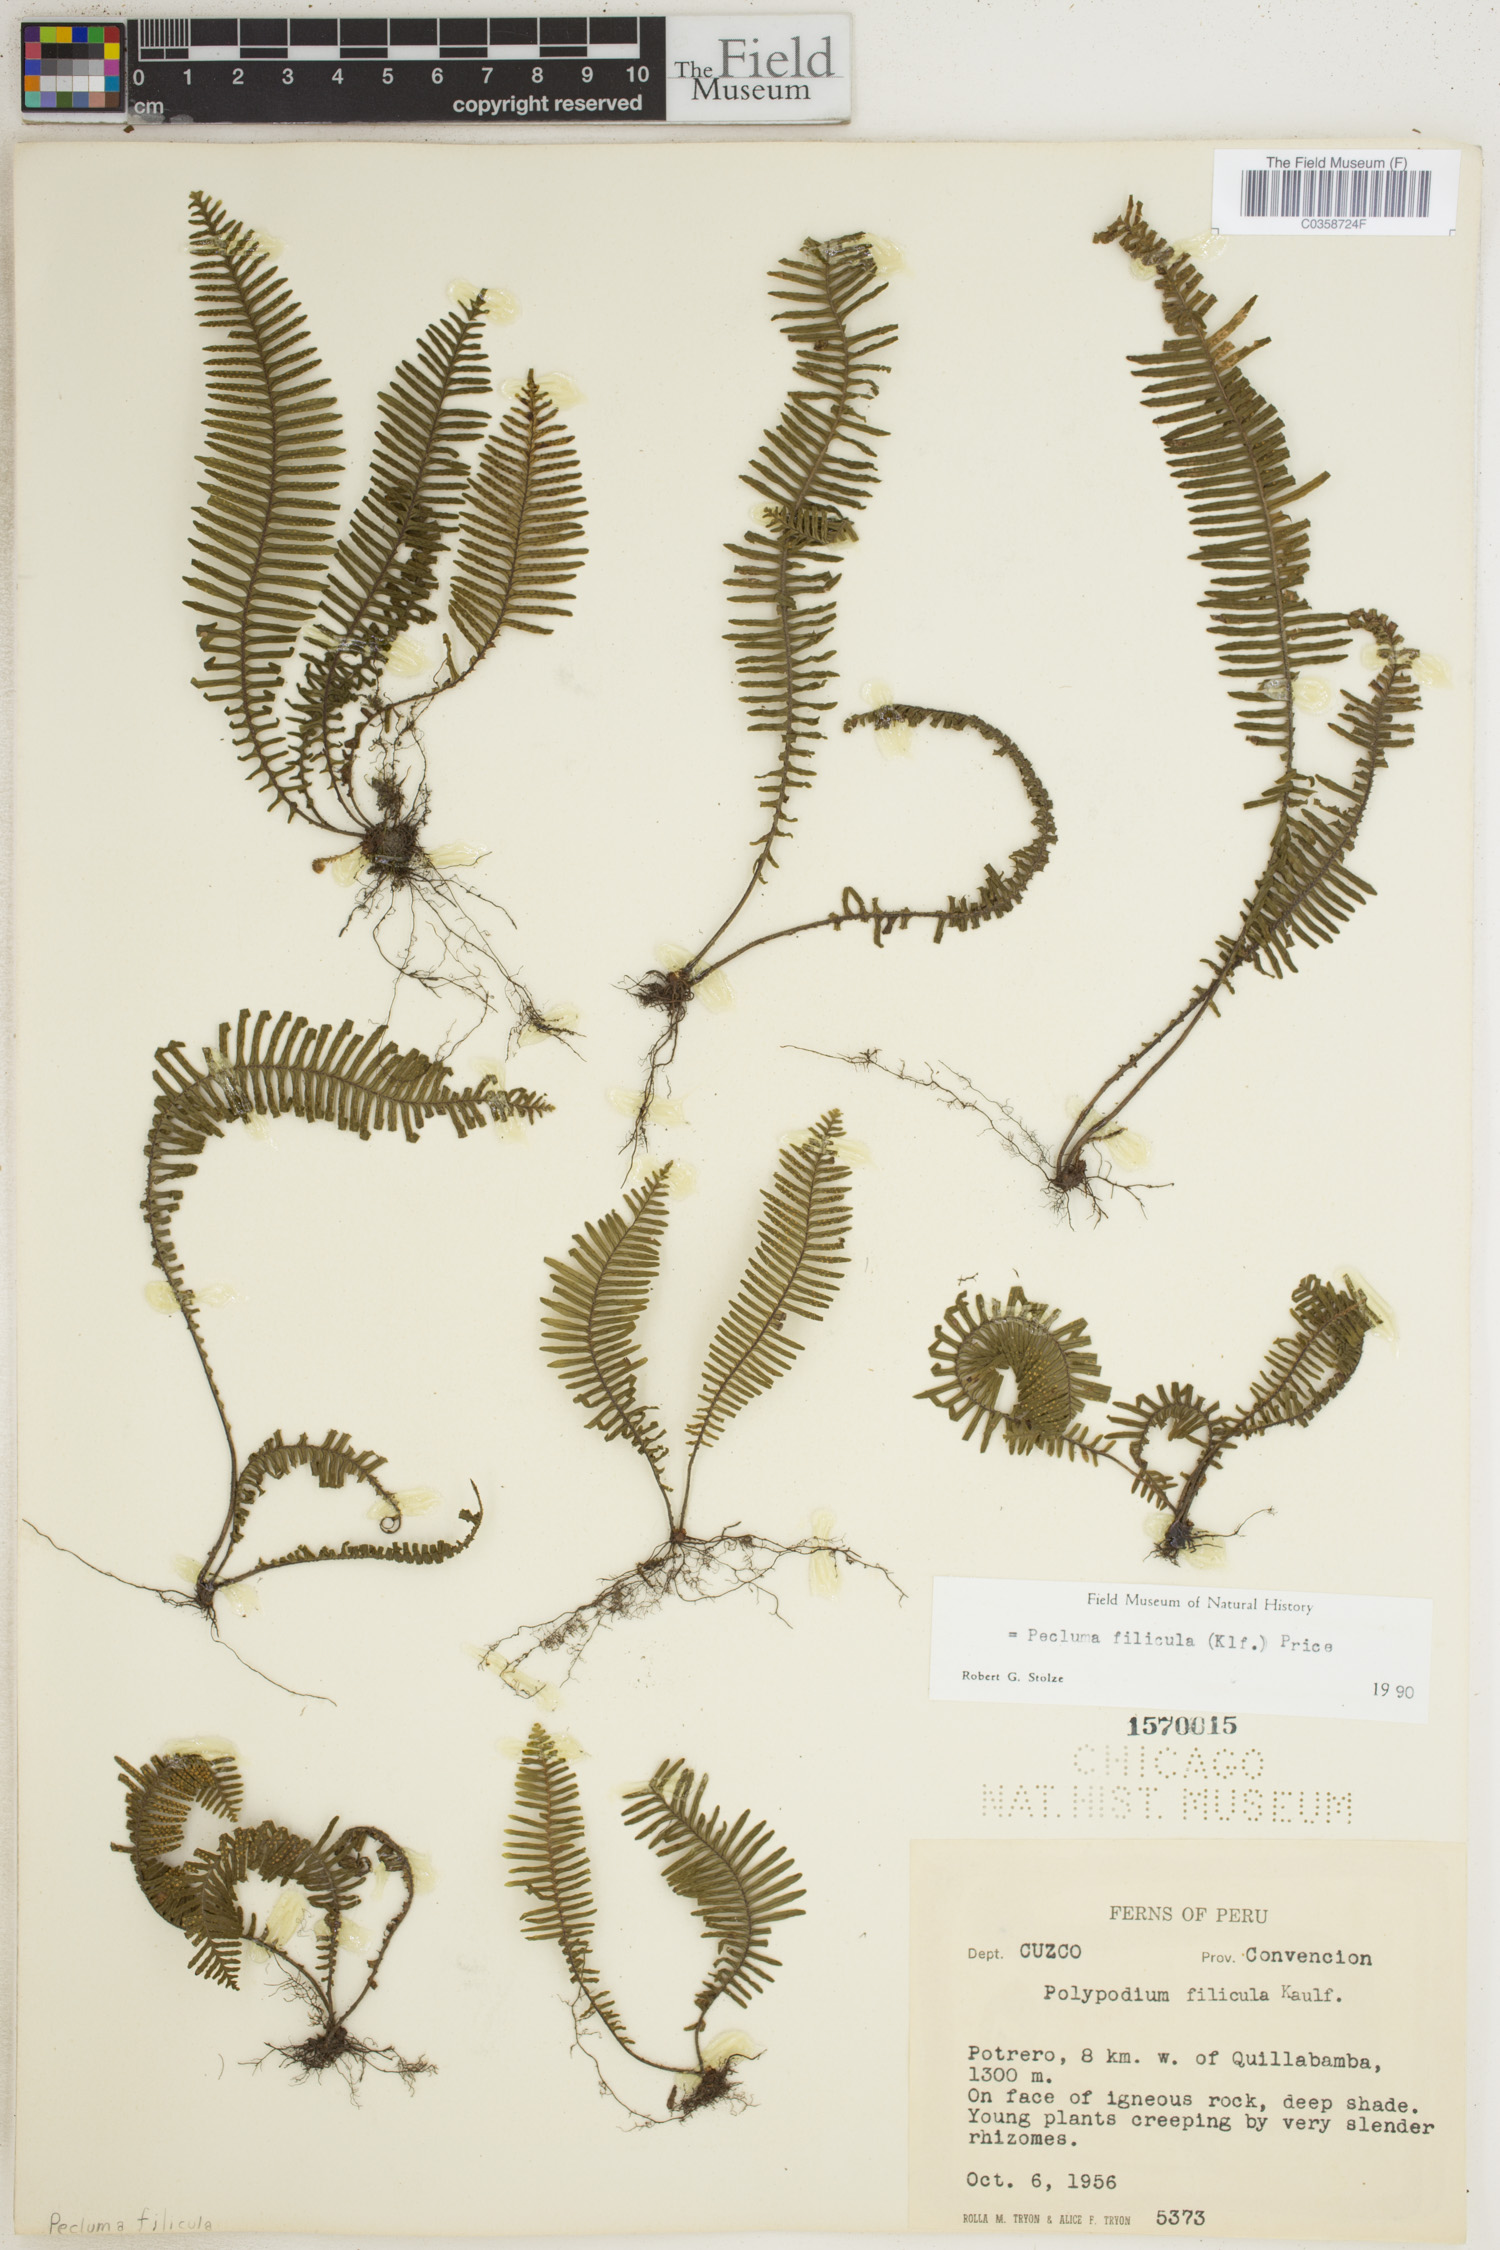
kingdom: Plantae
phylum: Tracheophyta
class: Polypodiopsida
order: Polypodiales
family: Polypodiaceae
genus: Pecluma
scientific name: Pecluma filicula
